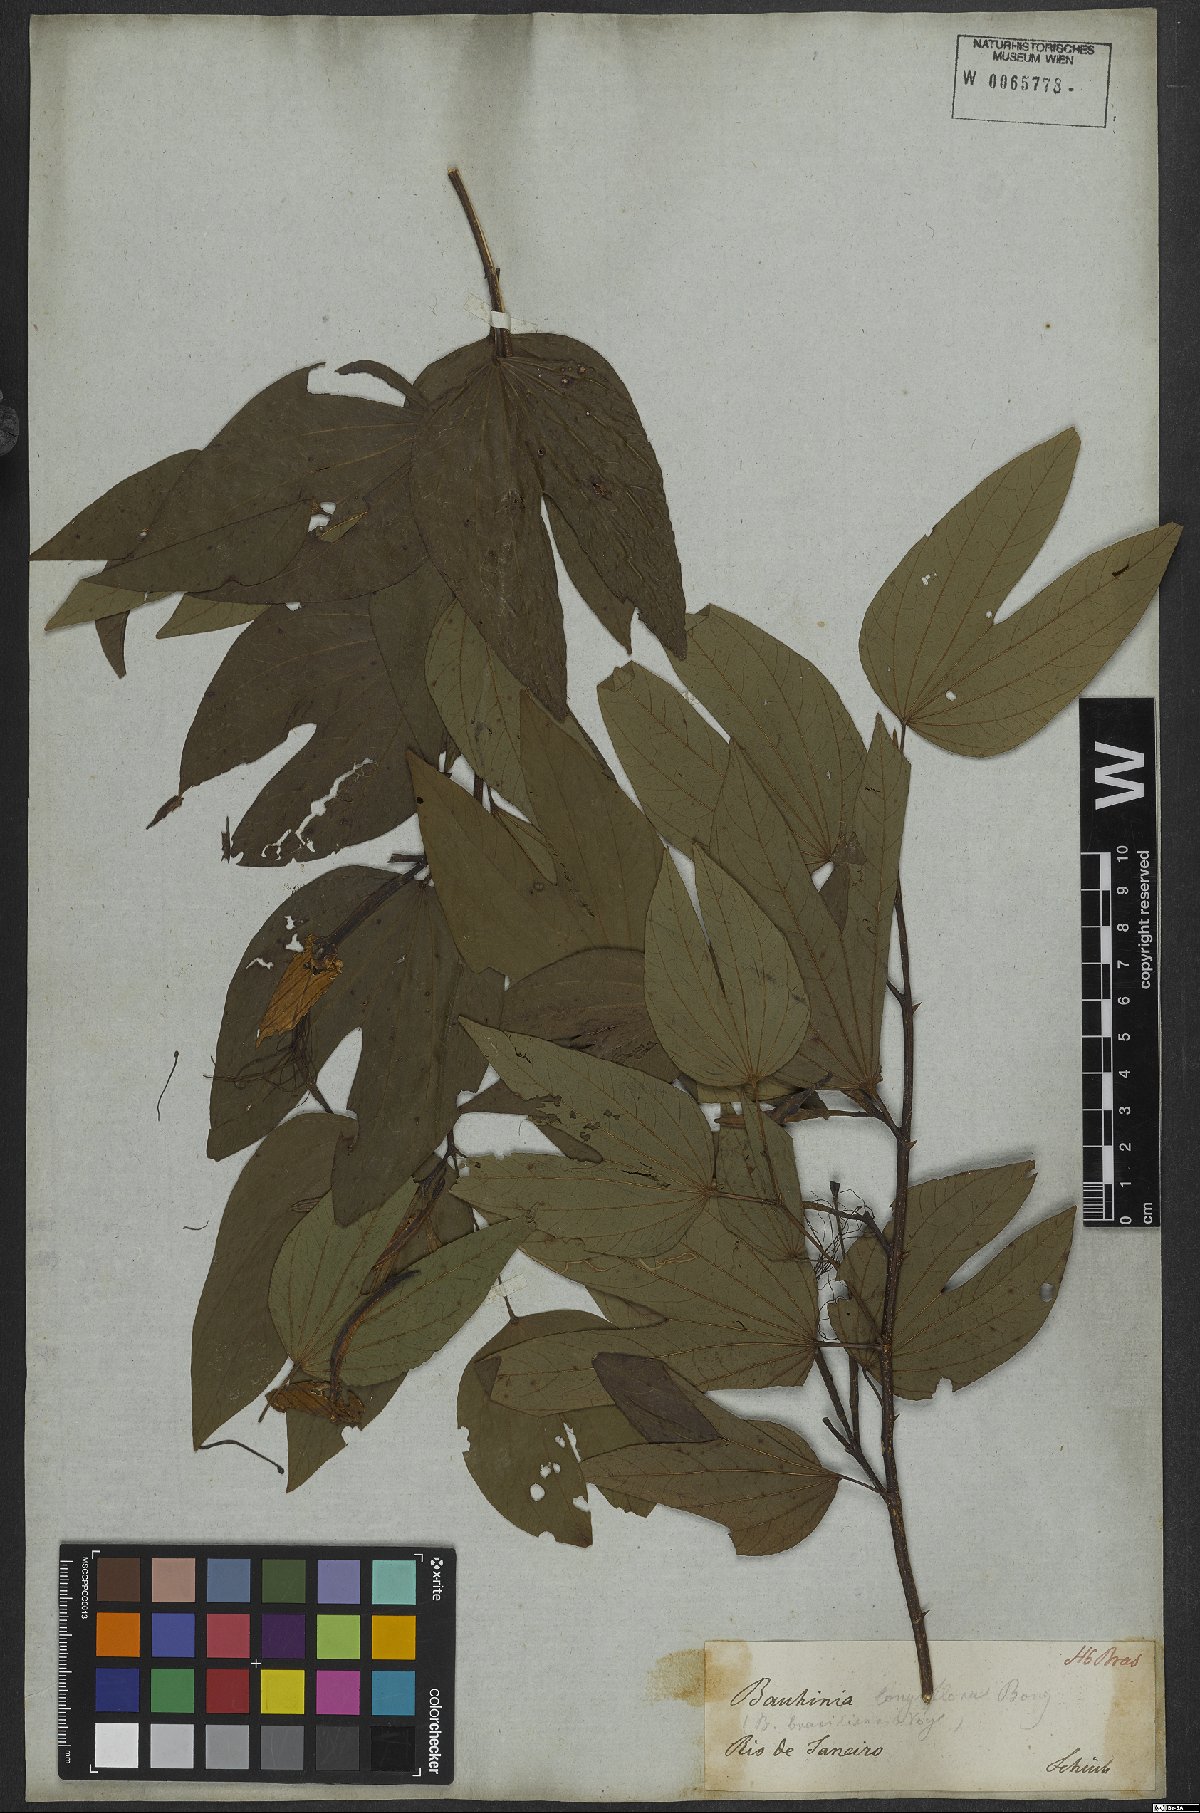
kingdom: Plantae
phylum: Tracheophyta
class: Magnoliopsida
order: Fabales
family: Fabaceae
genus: Bauhinia
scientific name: Bauhinia forficata
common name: Orchid tree
